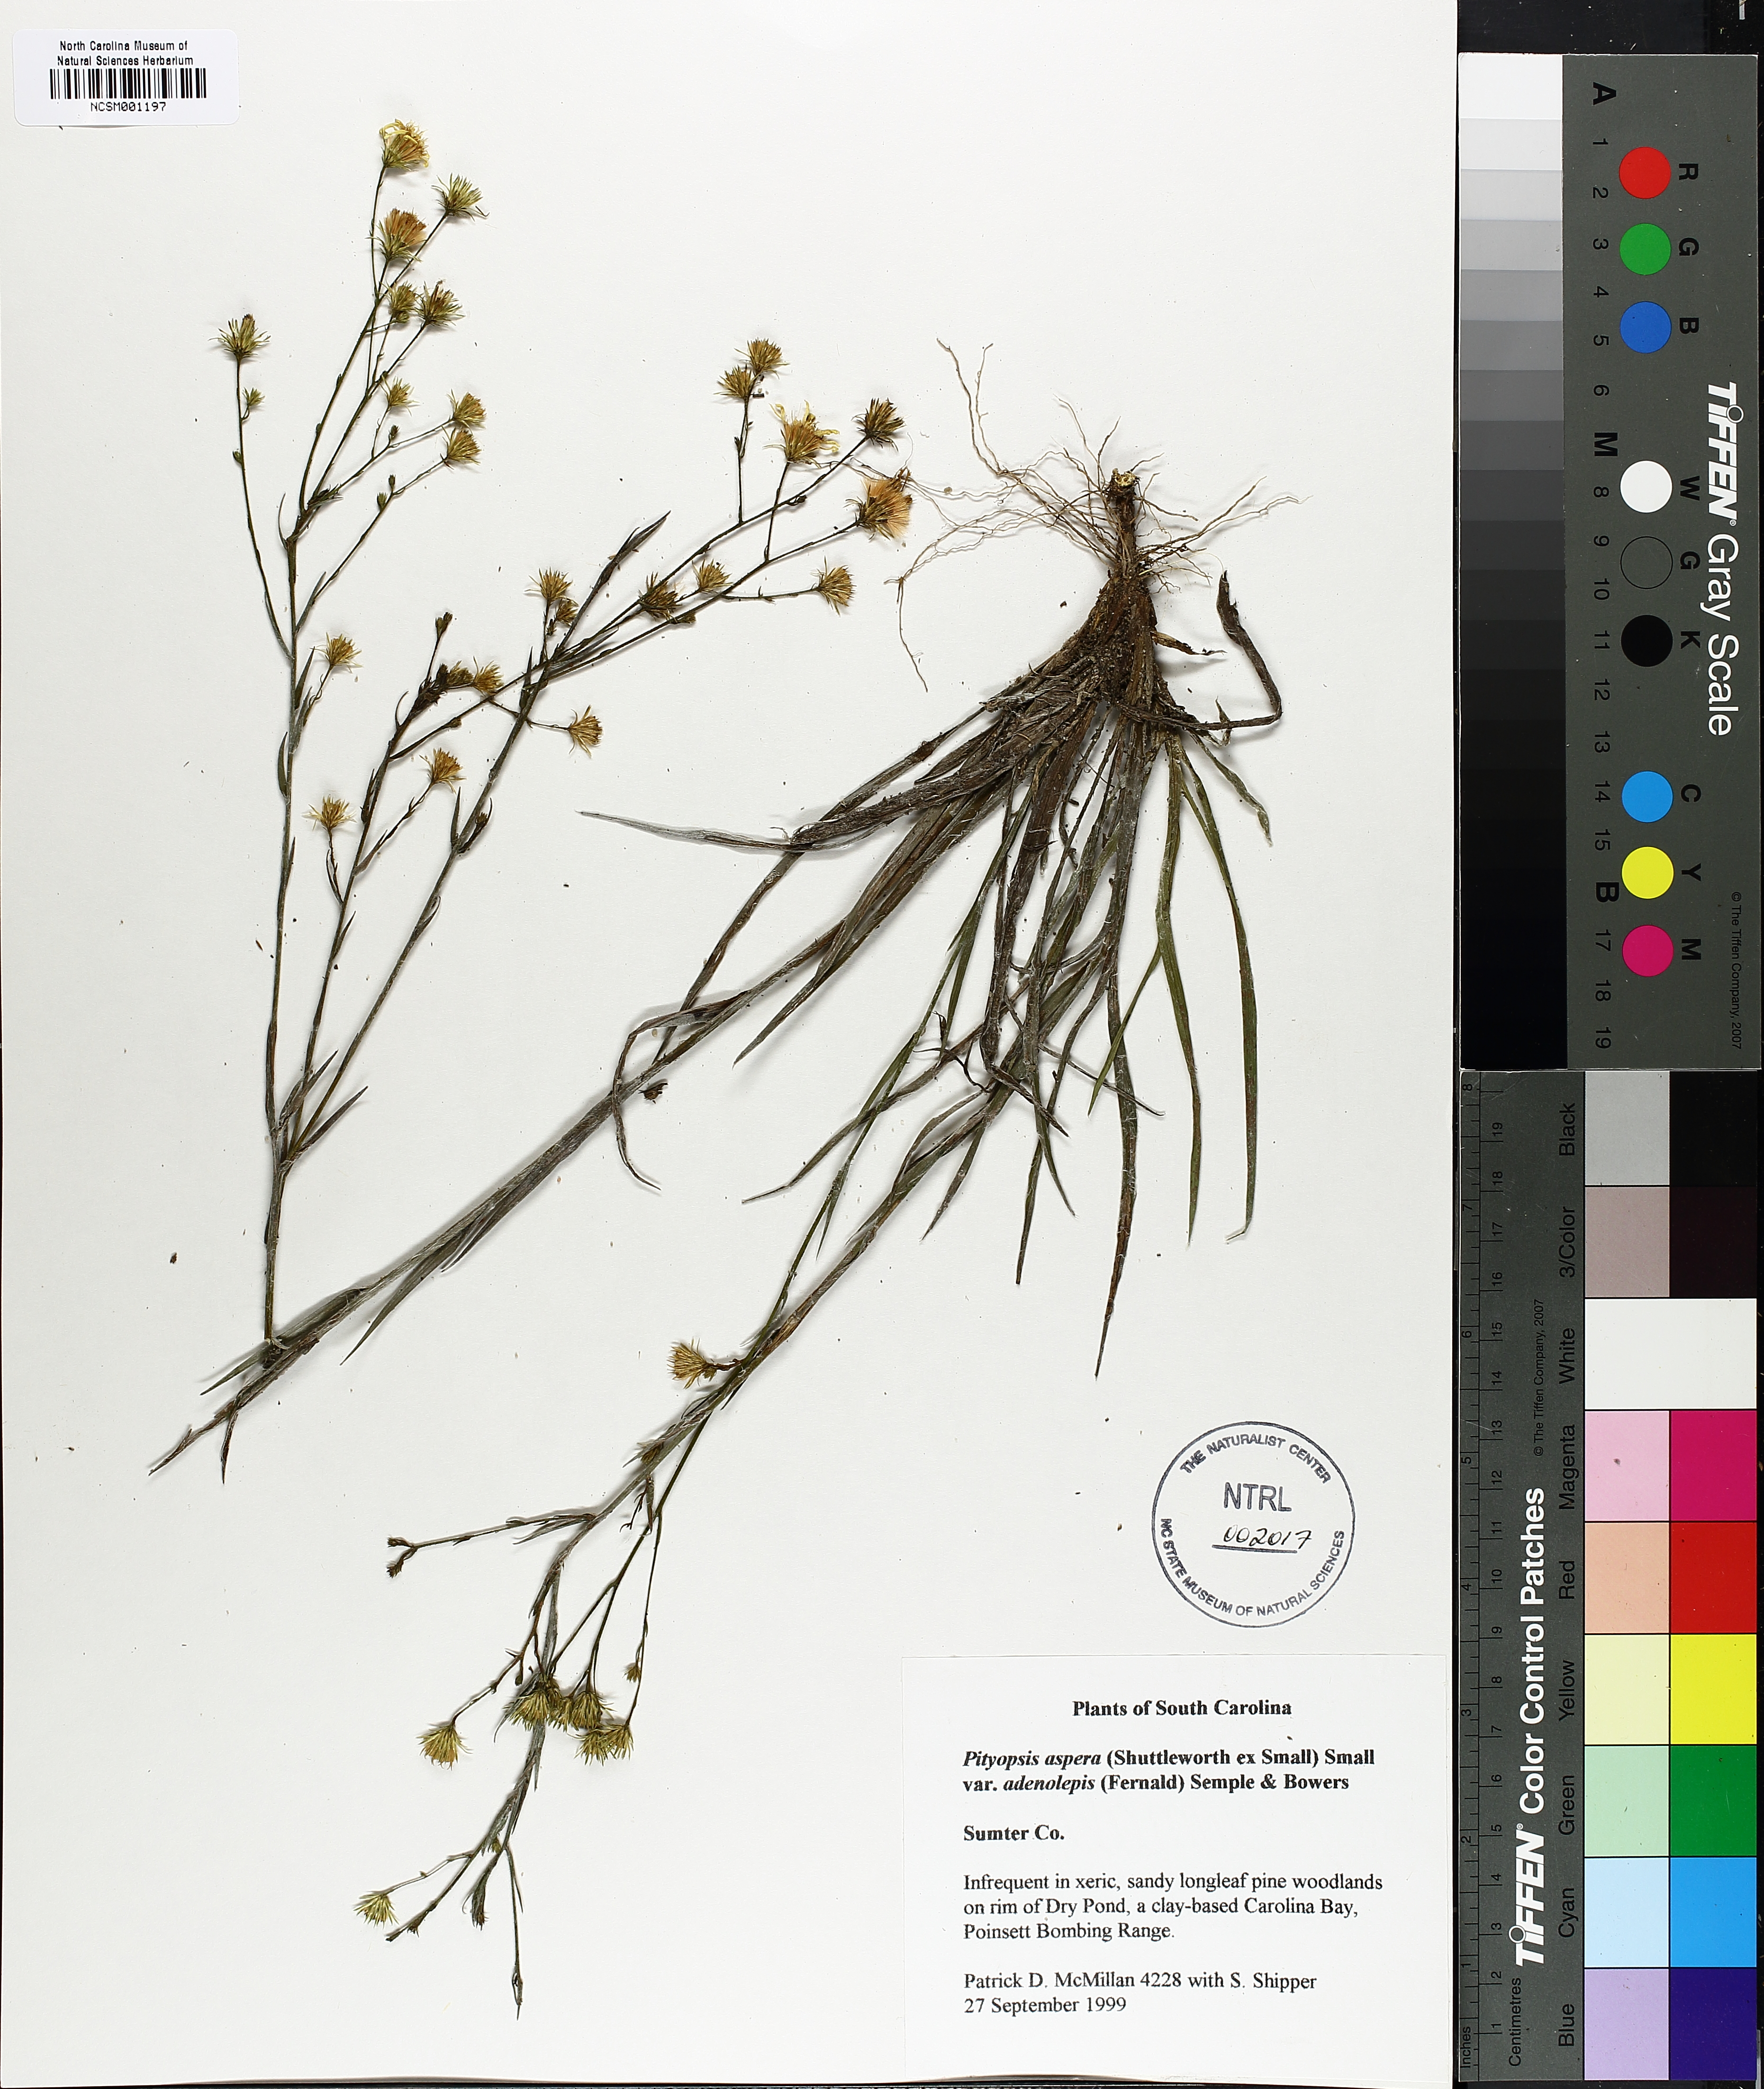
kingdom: Plantae
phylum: Tracheophyta
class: Magnoliopsida
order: Asterales
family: Asteraceae
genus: Pityopsis
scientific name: Pityopsis aspera
